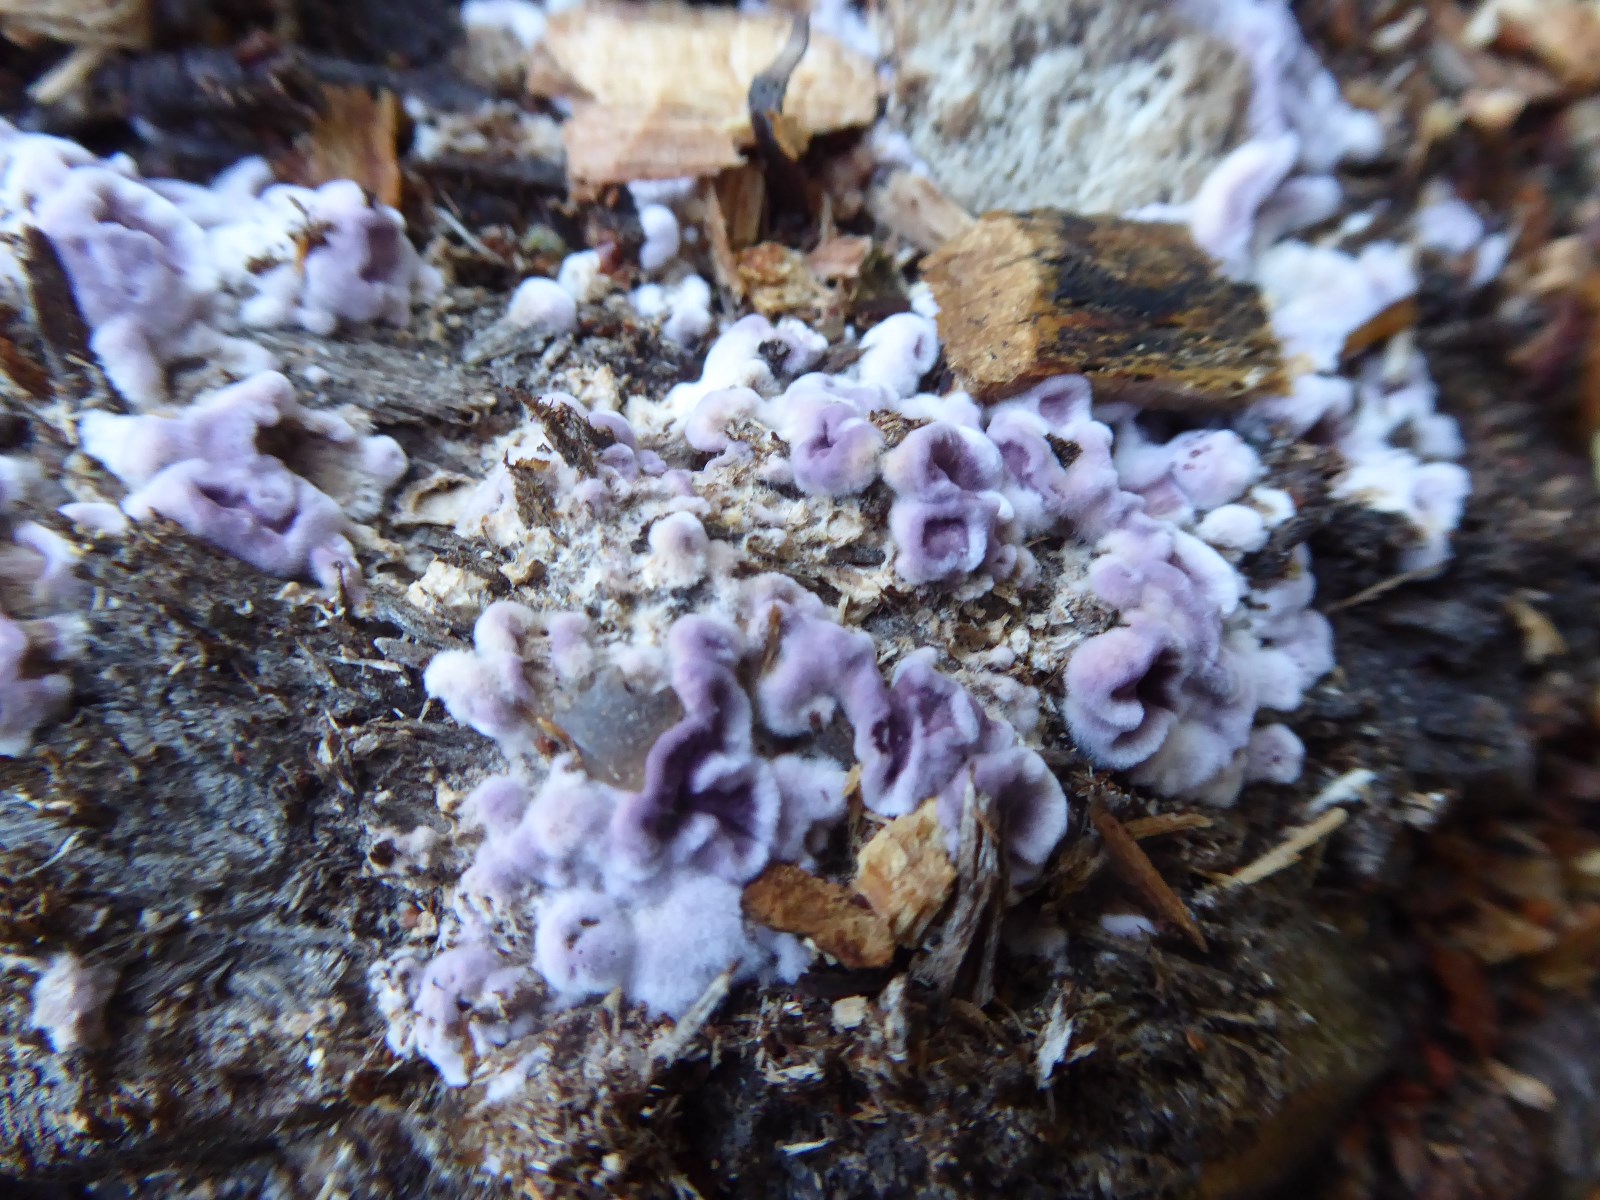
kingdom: Fungi
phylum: Basidiomycota
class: Agaricomycetes
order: Agaricales
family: Cyphellaceae
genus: Chondrostereum
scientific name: Chondrostereum purpureum
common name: purpurlædersvamp
